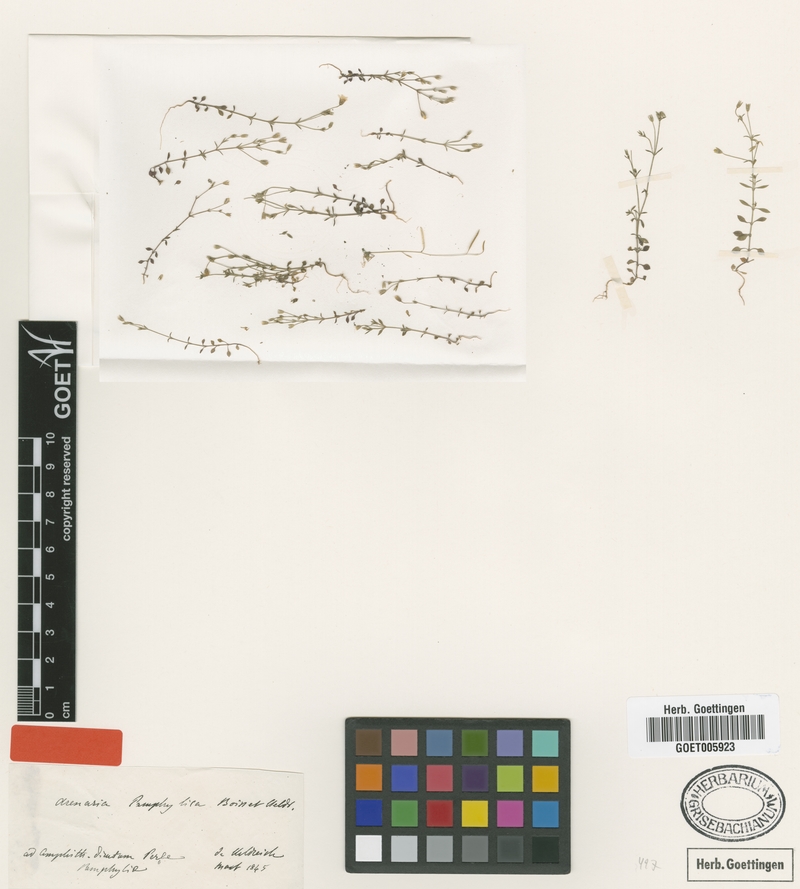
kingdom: Plantae
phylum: Tracheophyta
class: Magnoliopsida
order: Caryophyllales
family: Caryophyllaceae
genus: Arenaria
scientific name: Arenaria pamphylica
